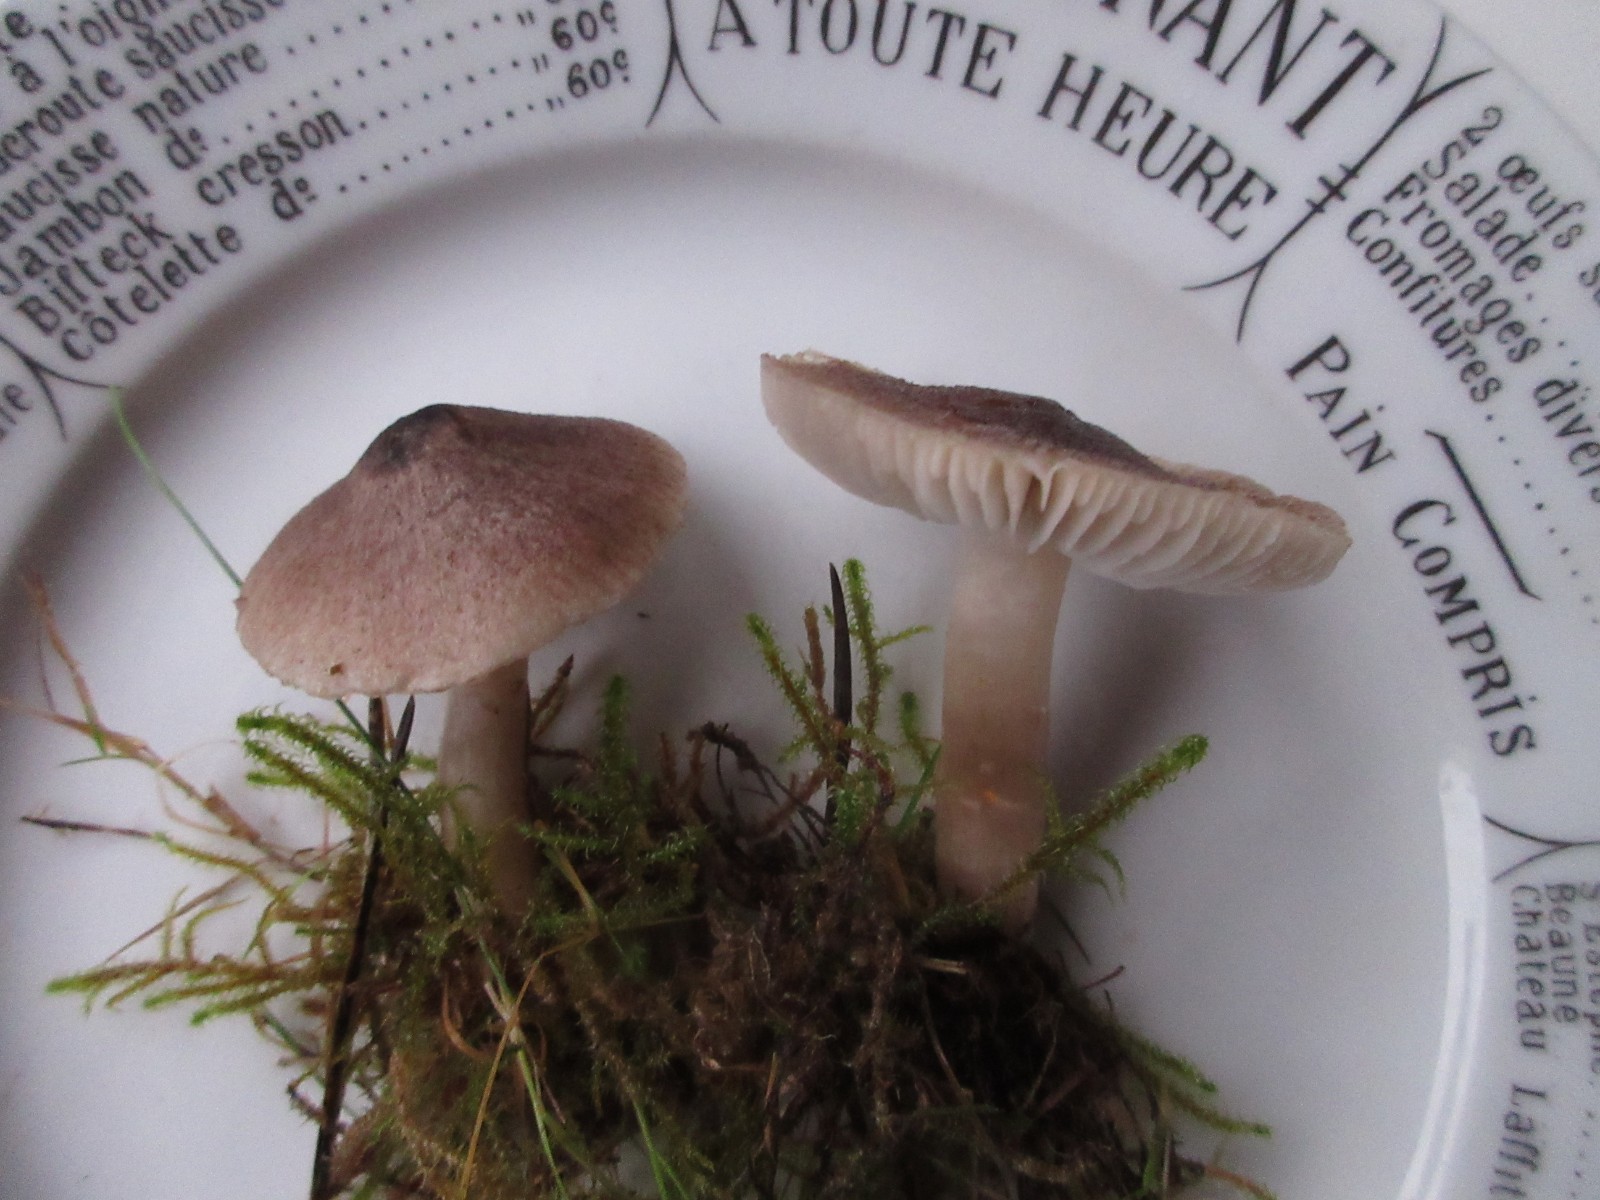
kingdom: Fungi
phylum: Basidiomycota
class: Agaricomycetes
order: Agaricales
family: Tricholomataceae
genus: Tricholoma
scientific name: Tricholoma terreum
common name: jordfarvet ridderhat
